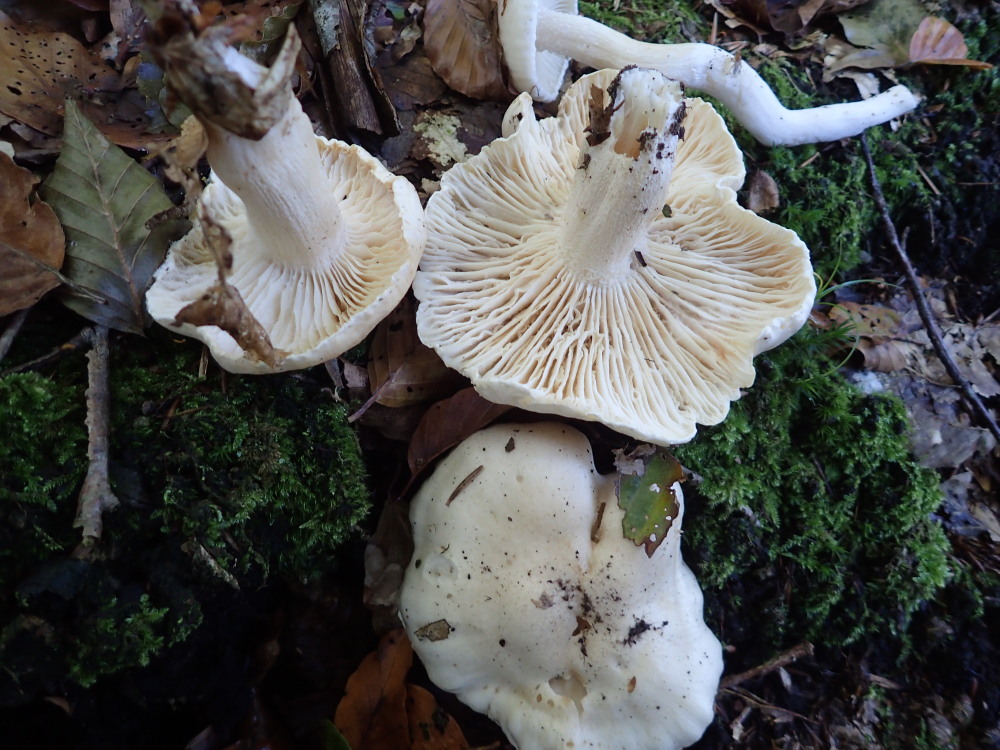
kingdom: Fungi
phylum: Basidiomycota
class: Agaricomycetes
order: Agaricales
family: Hygrophoraceae
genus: Hygrophorus
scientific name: Hygrophorus eburneus
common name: elfenbens-sneglehat
